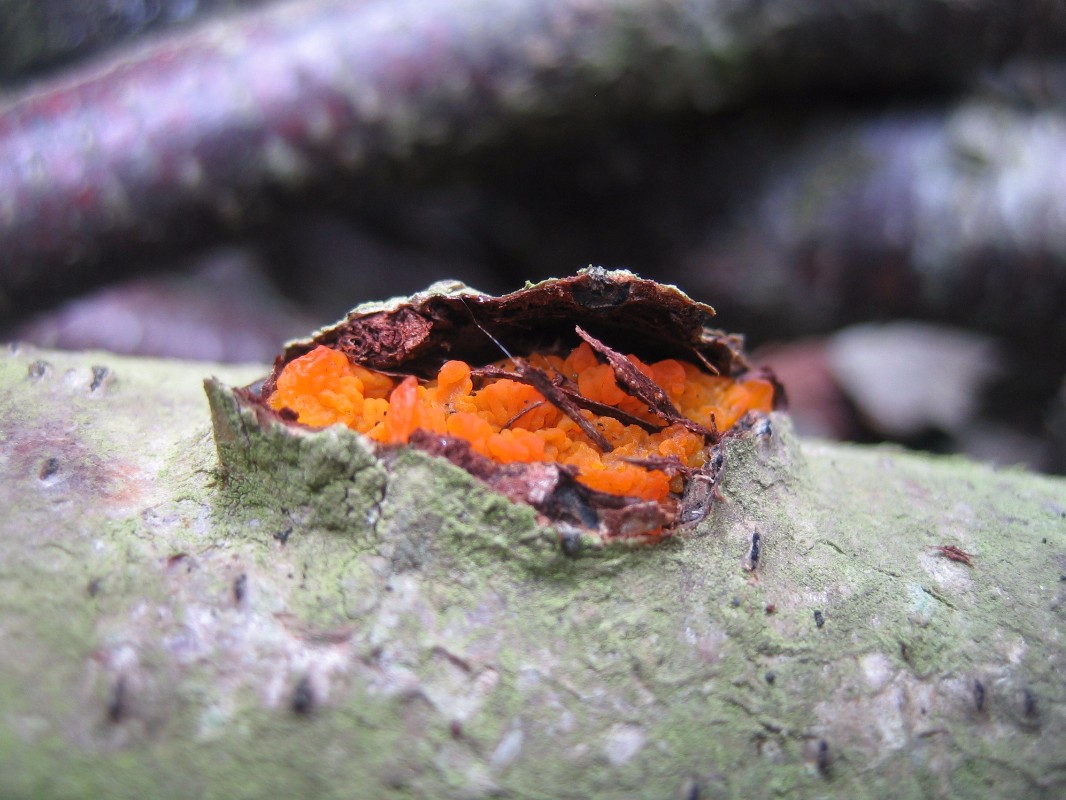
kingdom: Fungi
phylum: Basidiomycota
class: Tremellomycetes
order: Tremellales
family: Tremellaceae
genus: Tremella
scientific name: Tremella mesenterica
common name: gul bævresvamp
